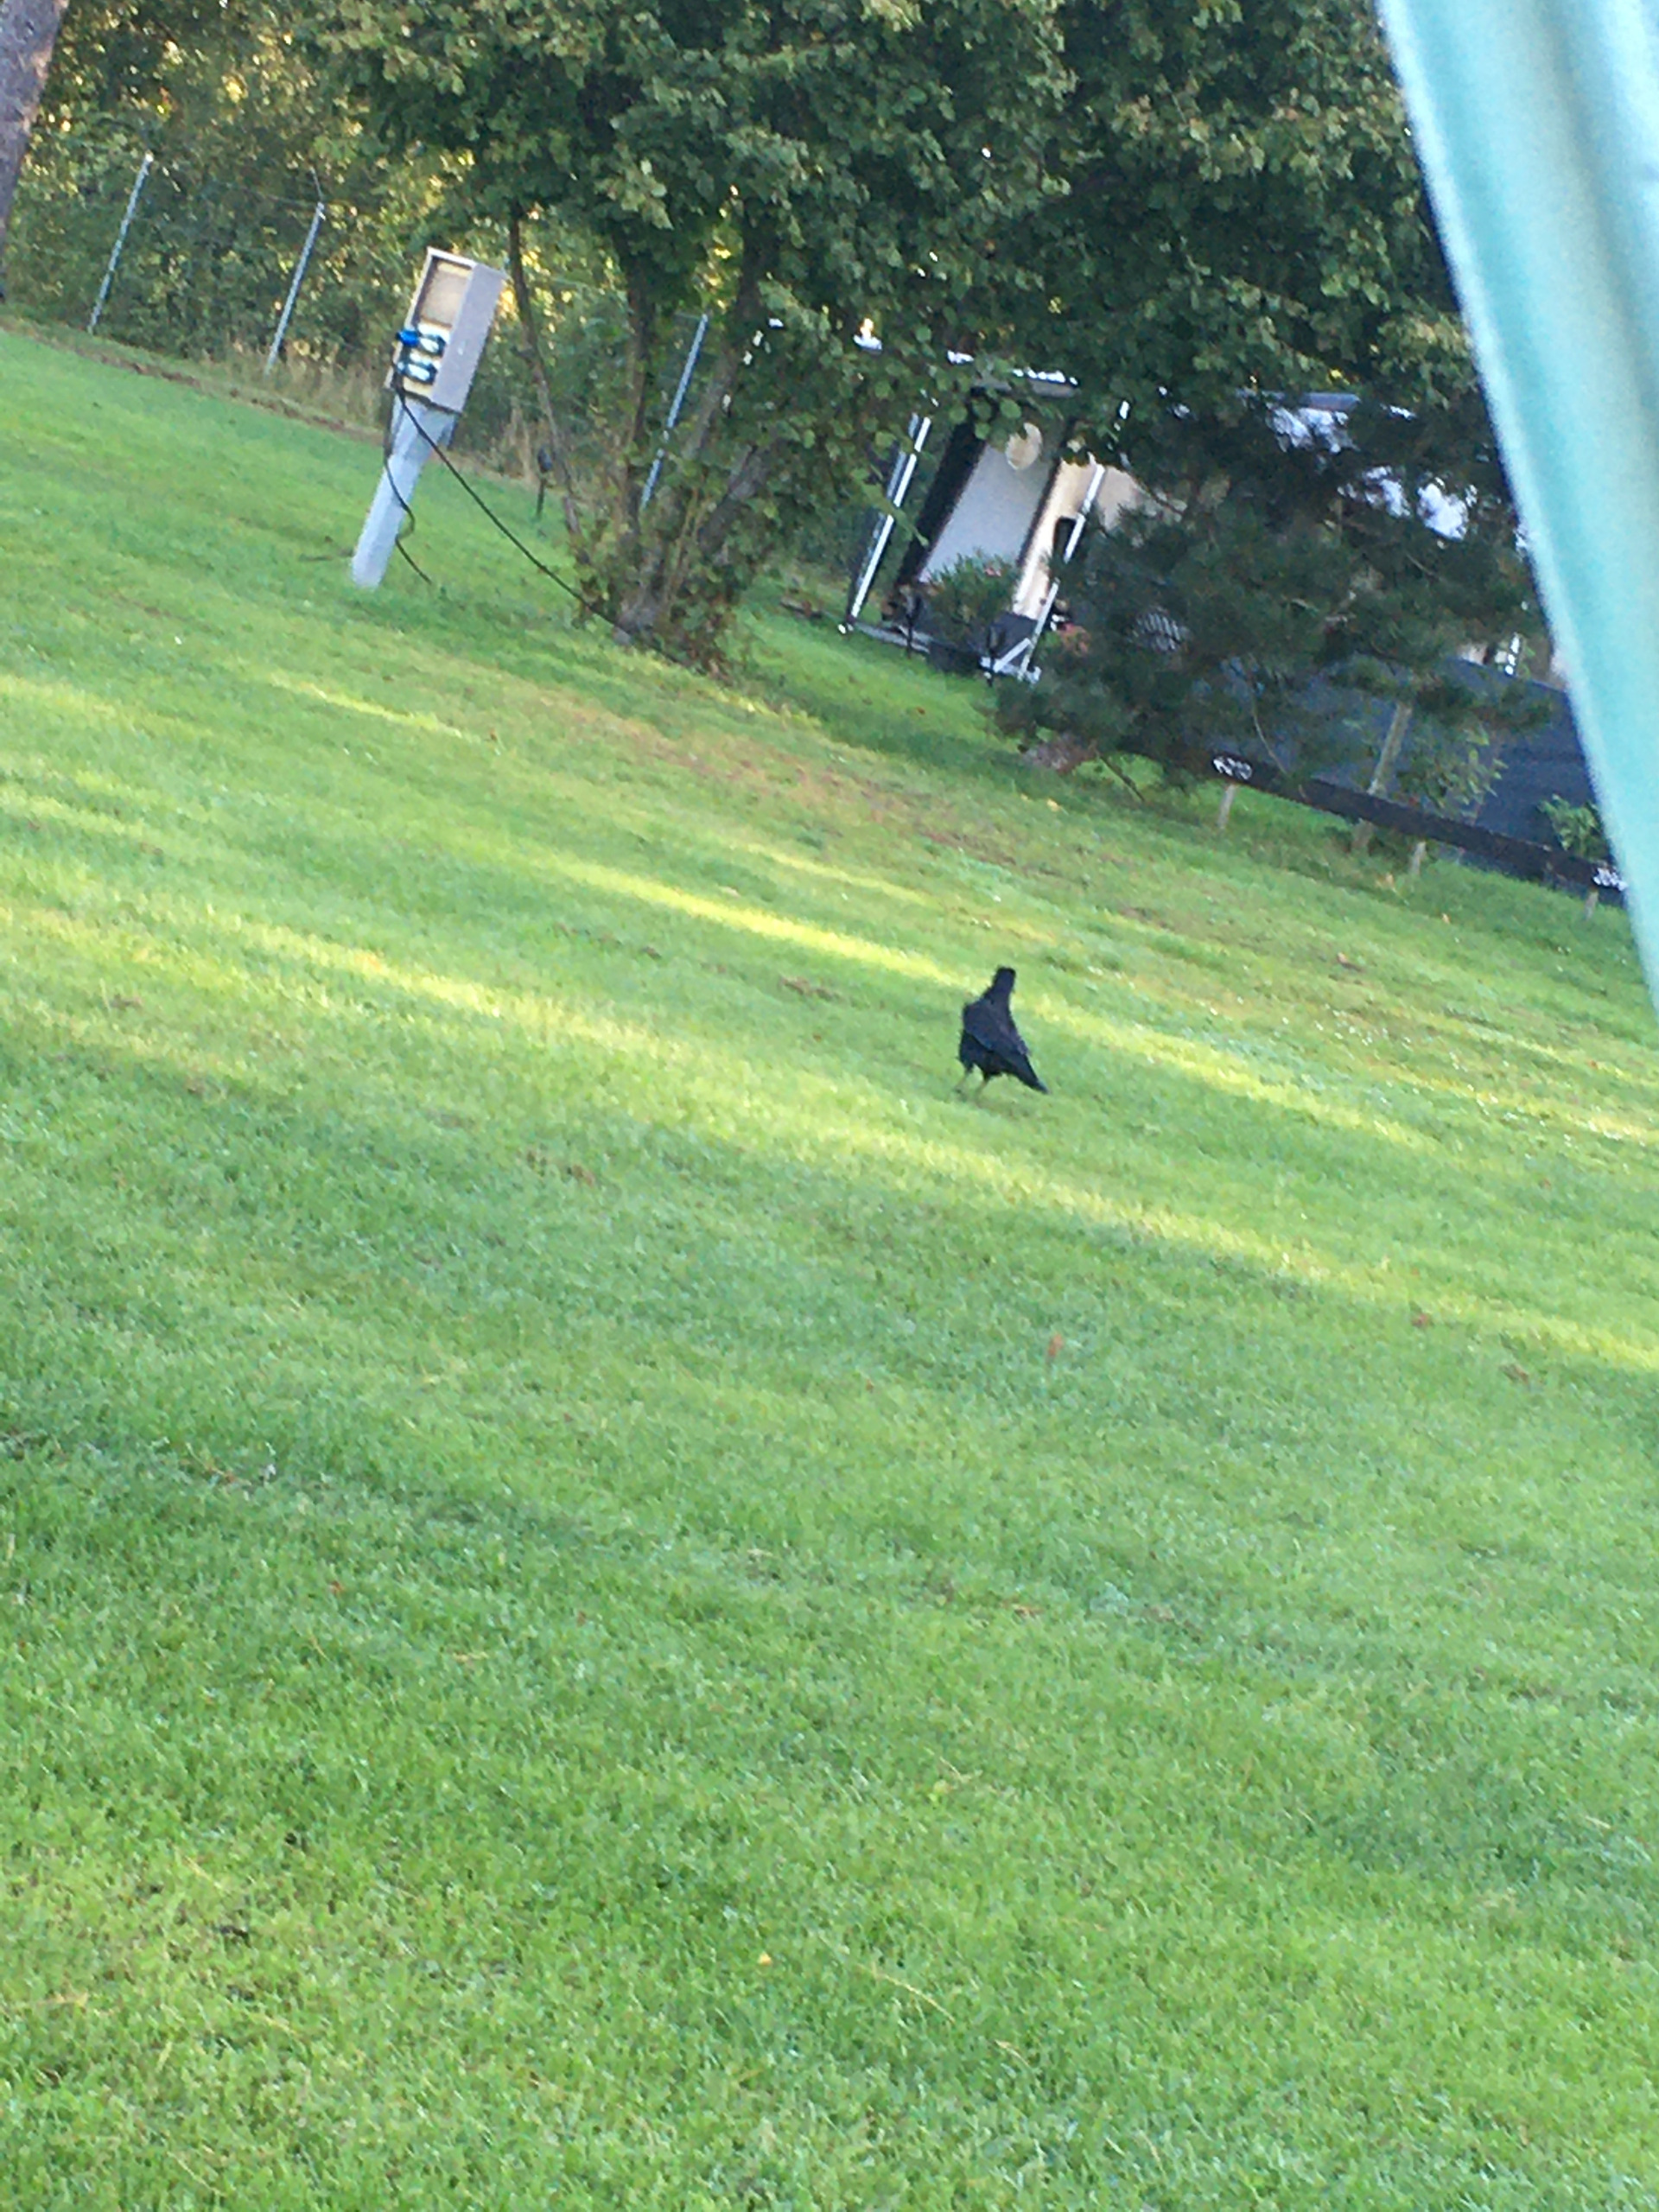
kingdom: Animalia
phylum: Chordata
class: Aves
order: Passeriformes
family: Corvidae
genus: Corvus
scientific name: Corvus frugilegus
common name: Råge
